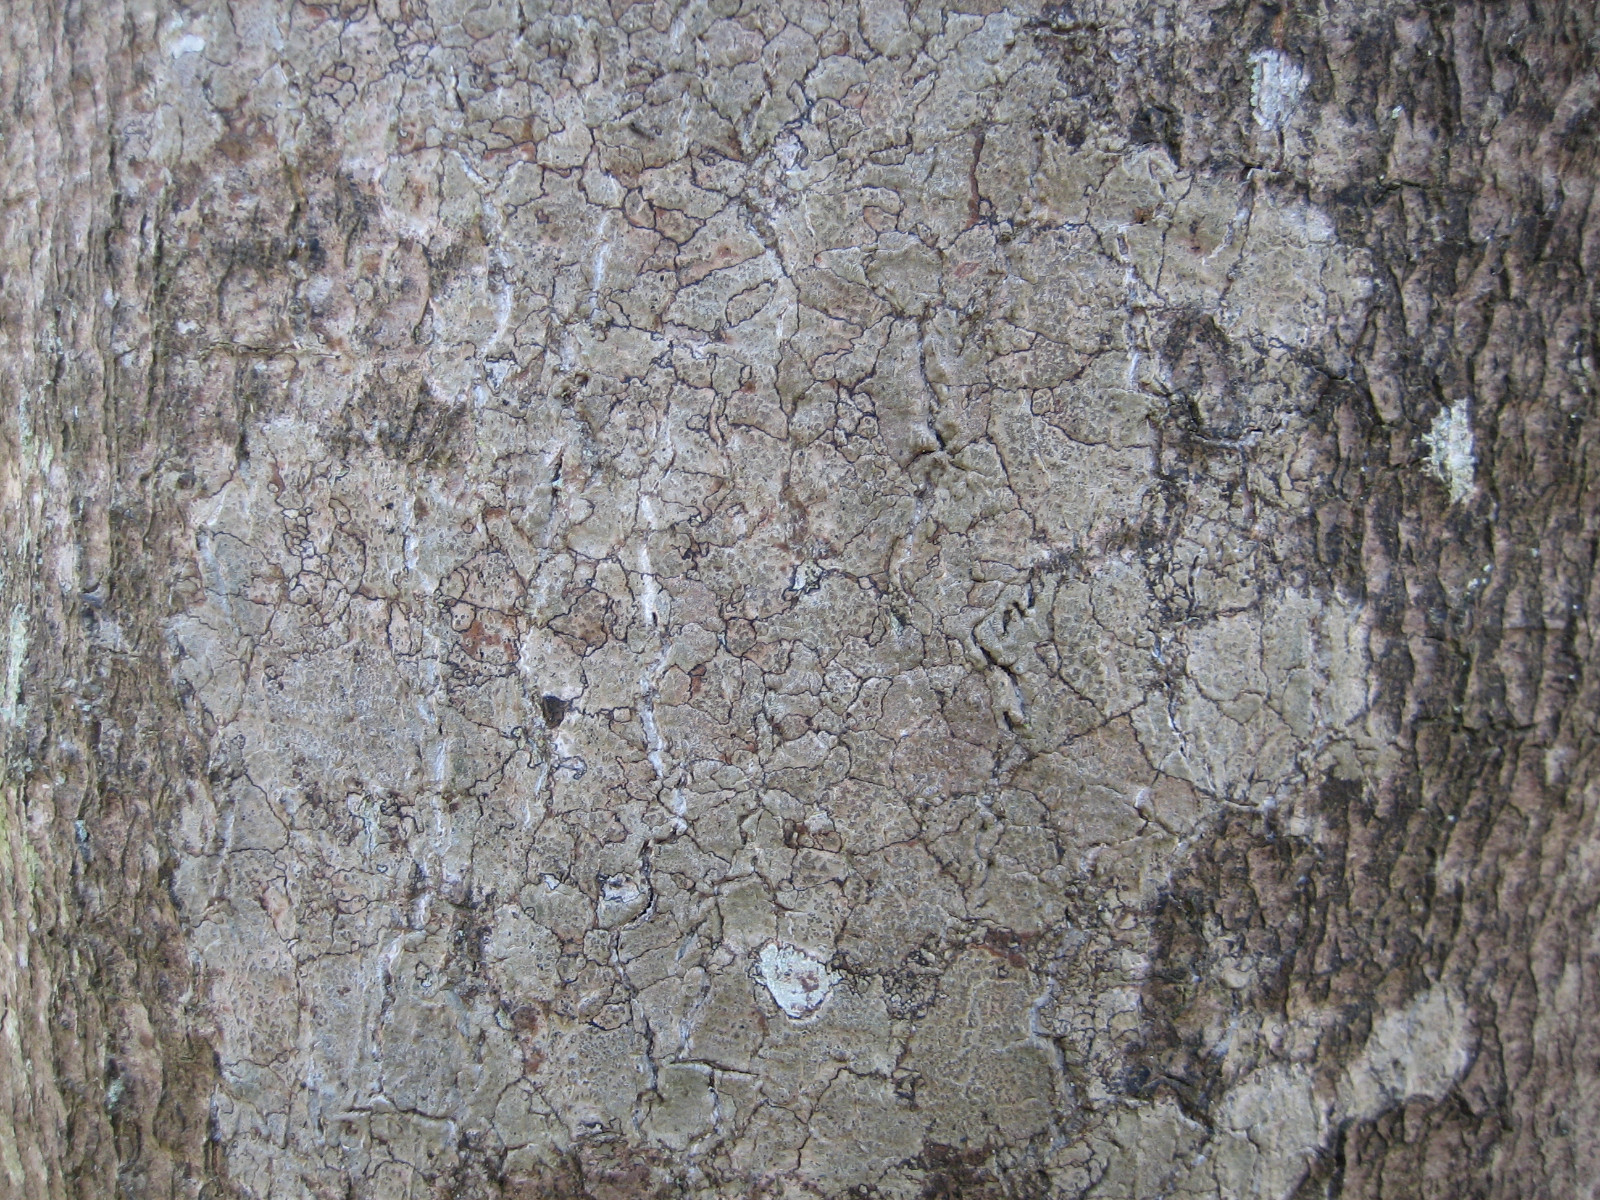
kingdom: Fungi
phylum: Ascomycota
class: Arthoniomycetes
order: Arthoniales
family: Roccellaceae
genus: Enterographa
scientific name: Enterographa crassa
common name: tyk prægelav
